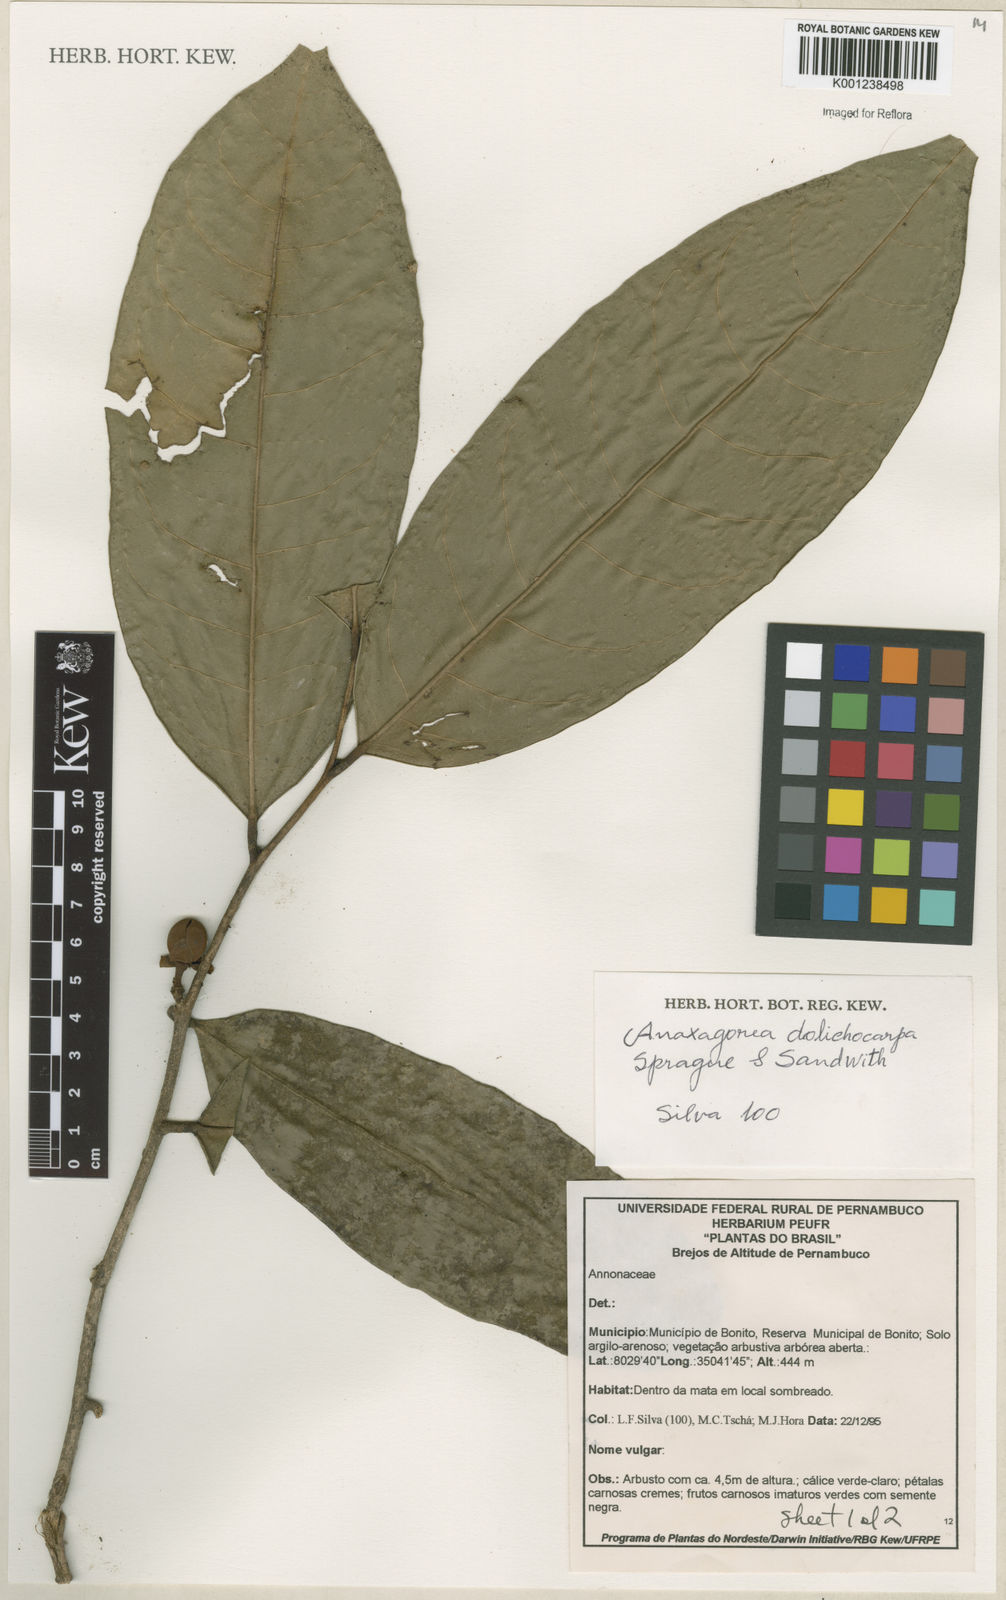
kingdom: Plantae
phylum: Tracheophyta
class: Magnoliopsida
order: Magnoliales
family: Annonaceae
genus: Anaxagorea
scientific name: Anaxagorea dolichocarpa
